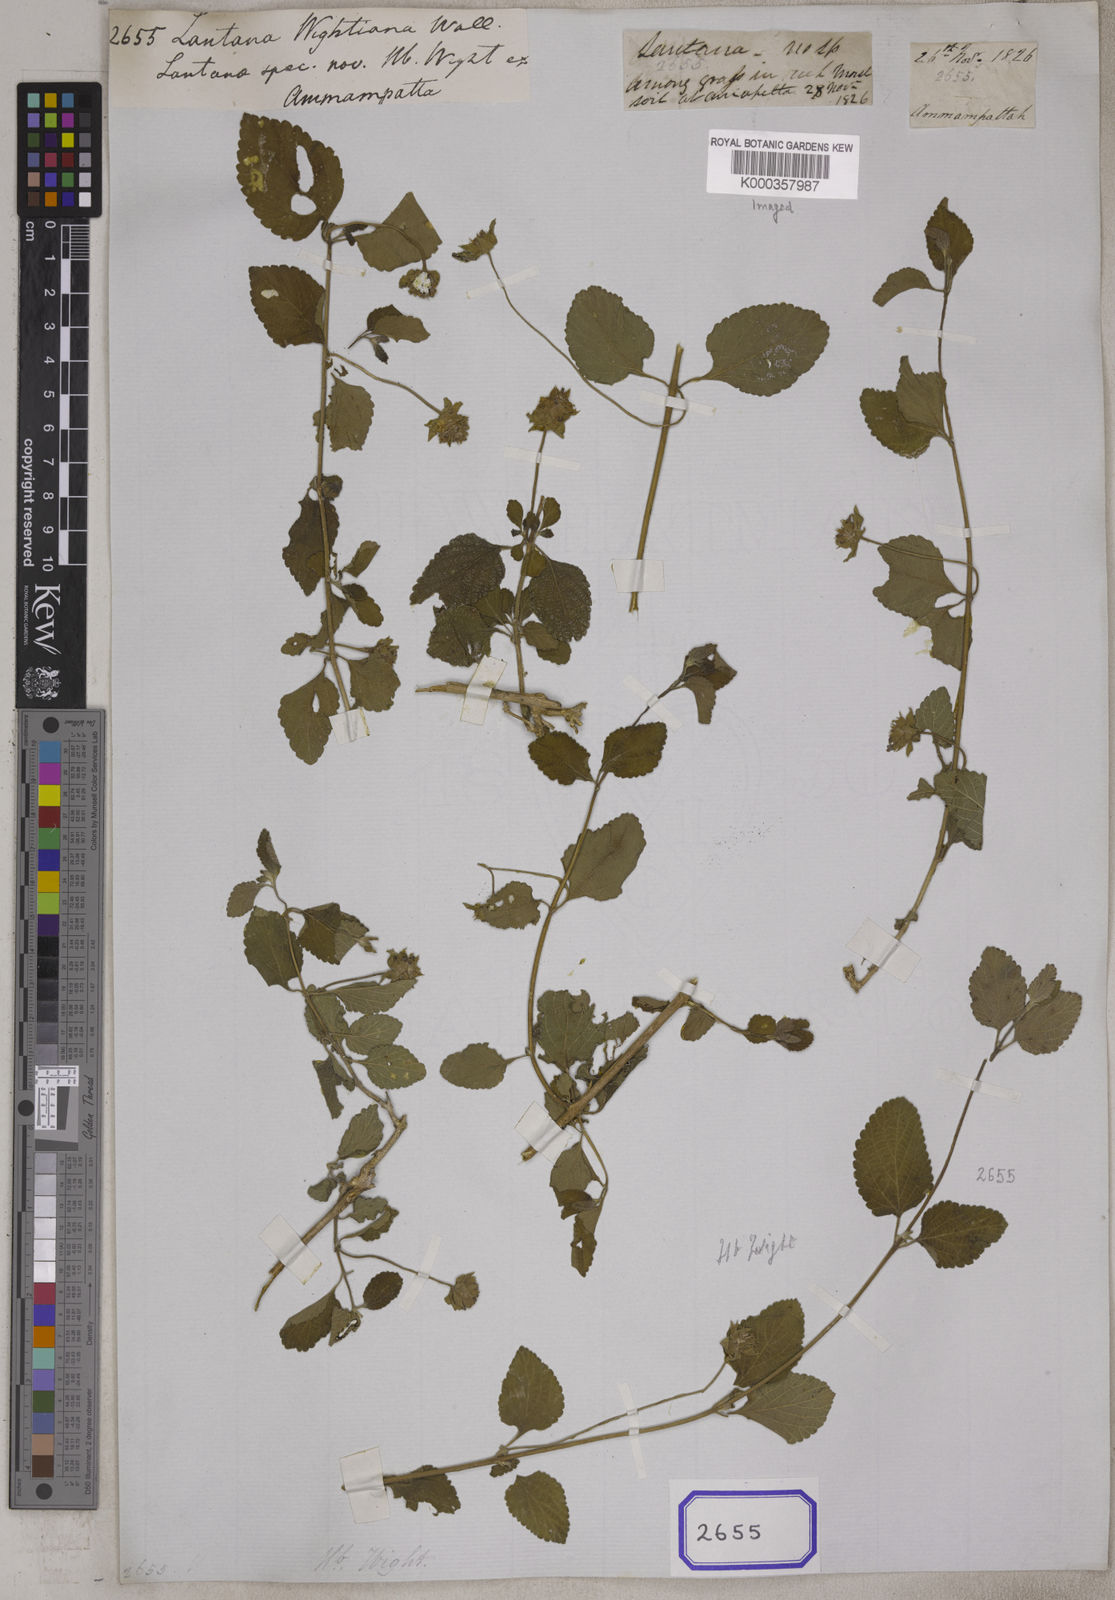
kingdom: Plantae
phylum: Tracheophyta
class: Magnoliopsida
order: Lamiales
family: Verbenaceae
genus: Lantana
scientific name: Lantana
